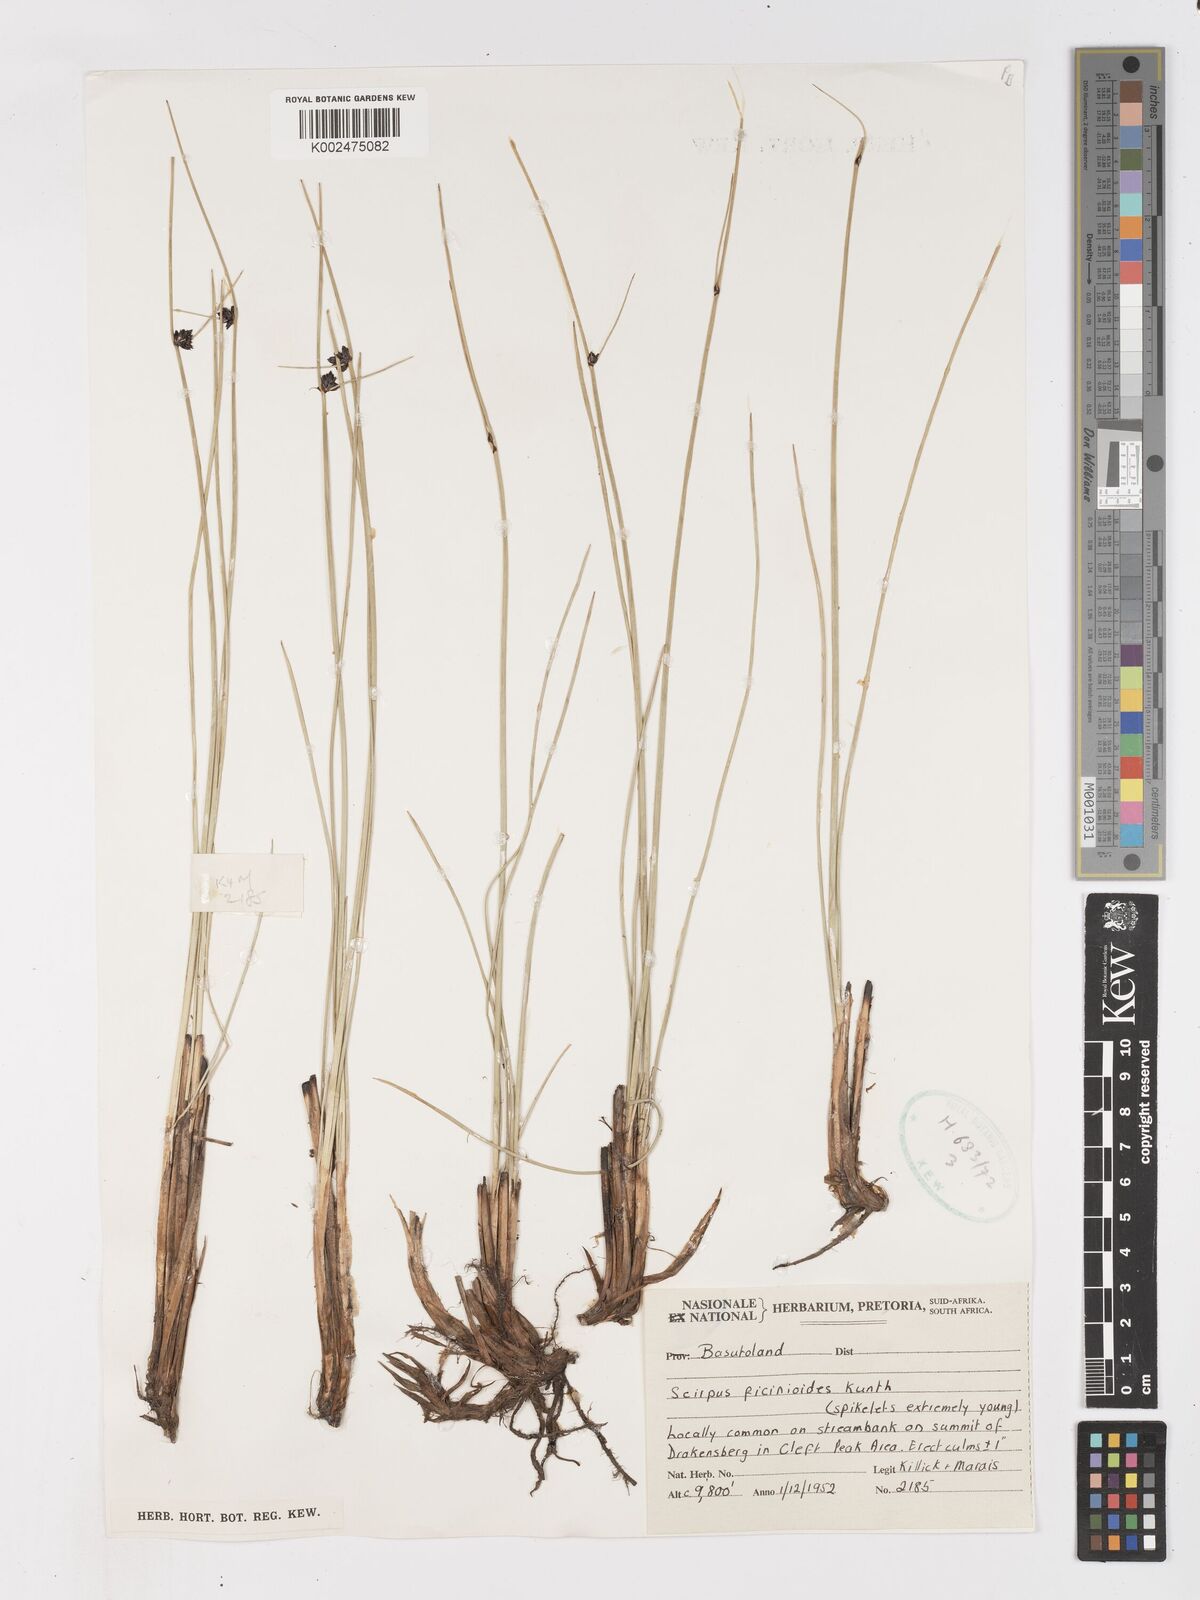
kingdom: Plantae
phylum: Tracheophyta
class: Liliopsida
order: Poales
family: Cyperaceae
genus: Ficinia
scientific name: Ficinia
